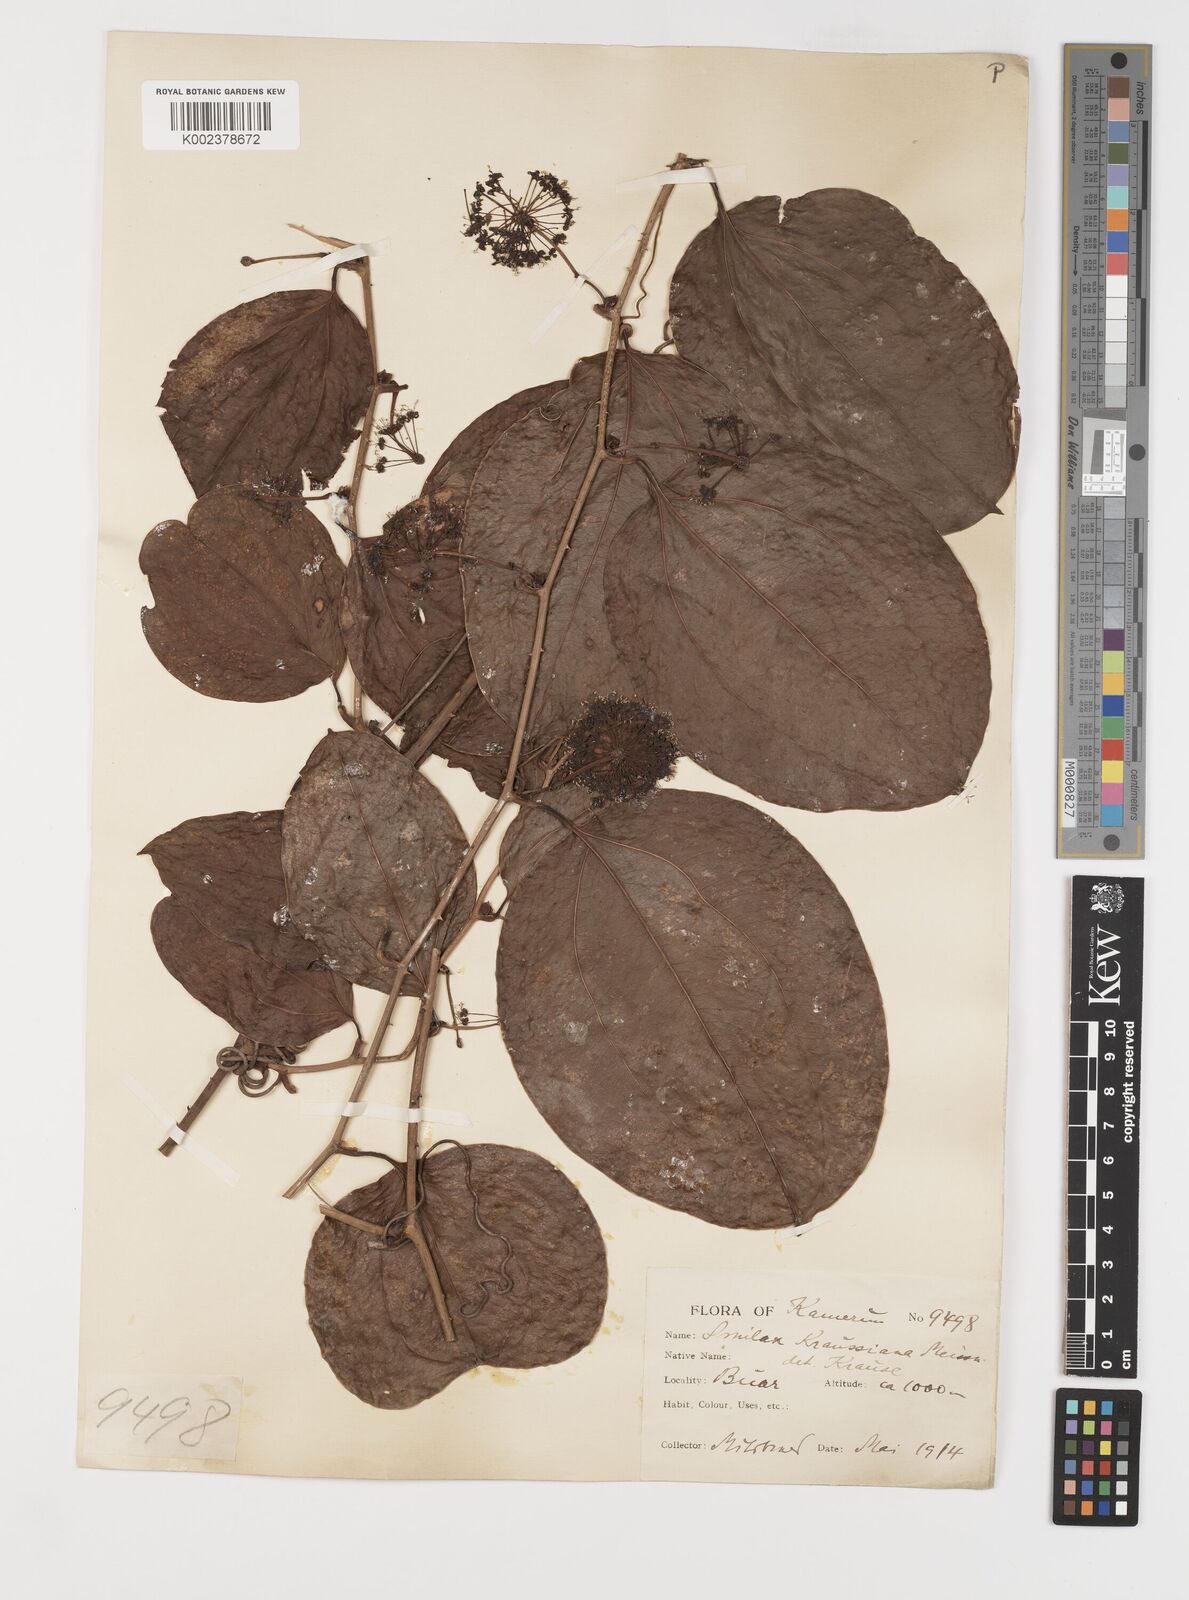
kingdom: Plantae
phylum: Tracheophyta
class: Liliopsida
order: Liliales
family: Smilacaceae
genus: Smilax
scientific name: Smilax anceps
